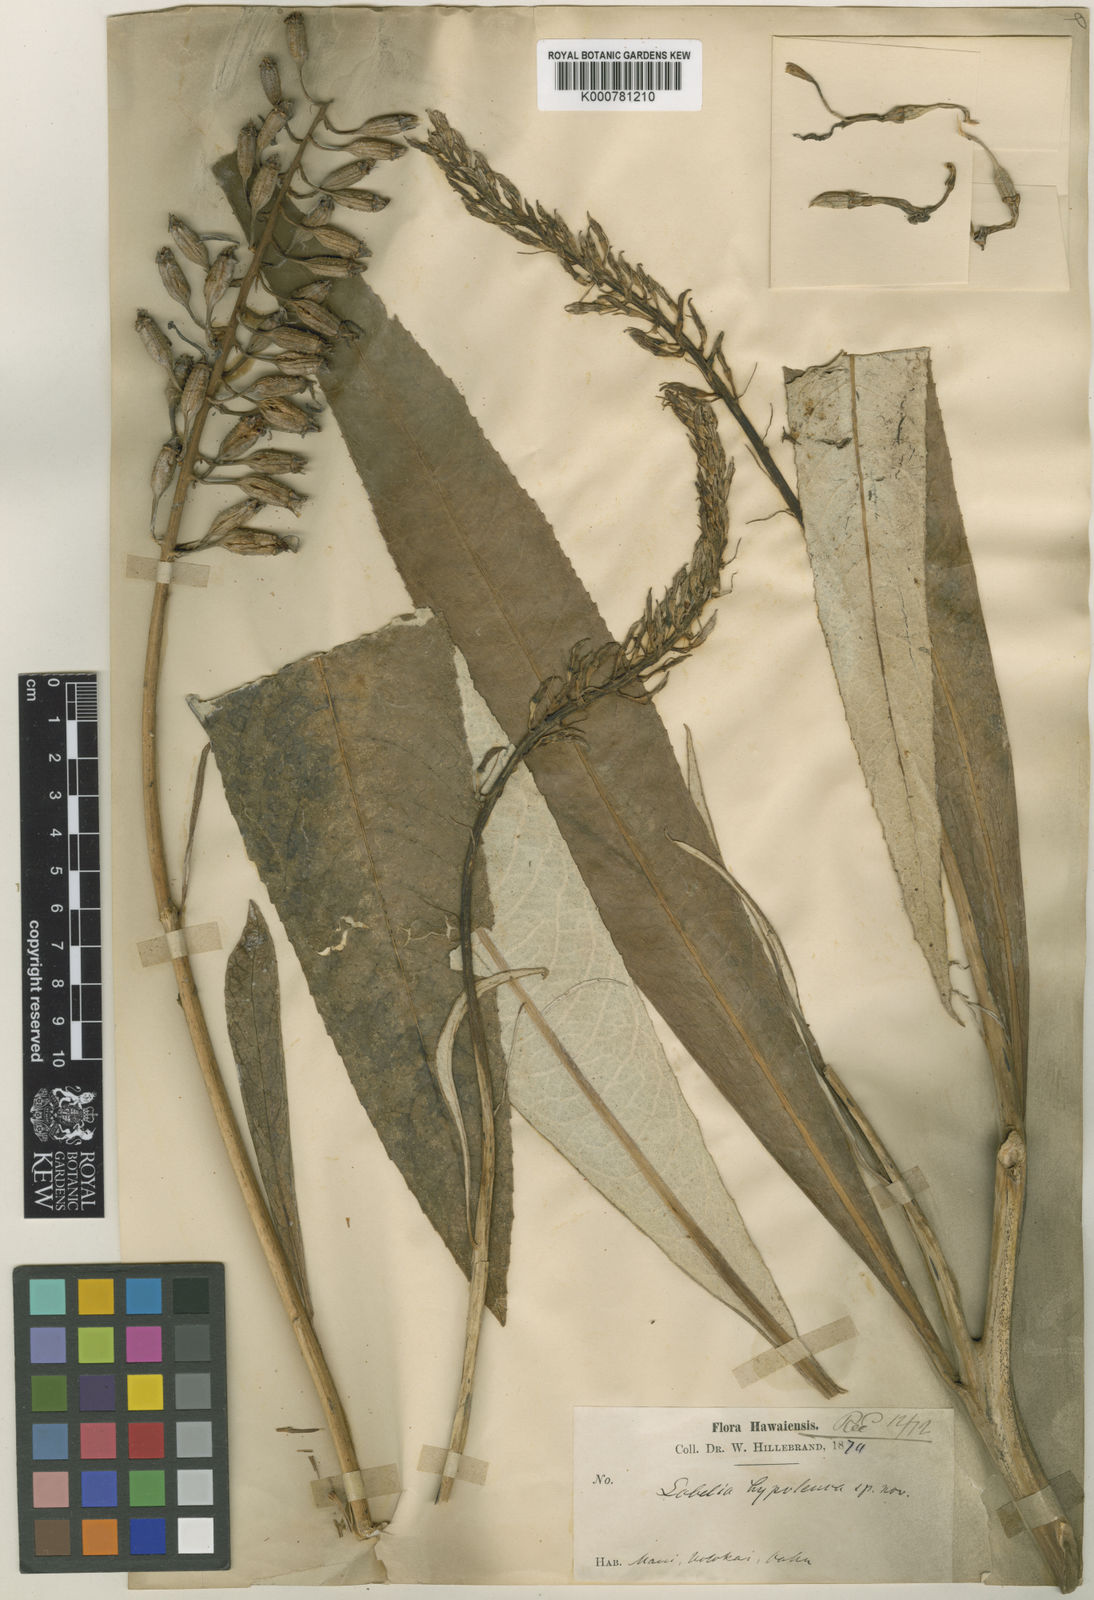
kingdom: Plantae
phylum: Tracheophyta
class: Magnoliopsida
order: Asterales
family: Campanulaceae
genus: Lobelia
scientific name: Lobelia hypoleuca
